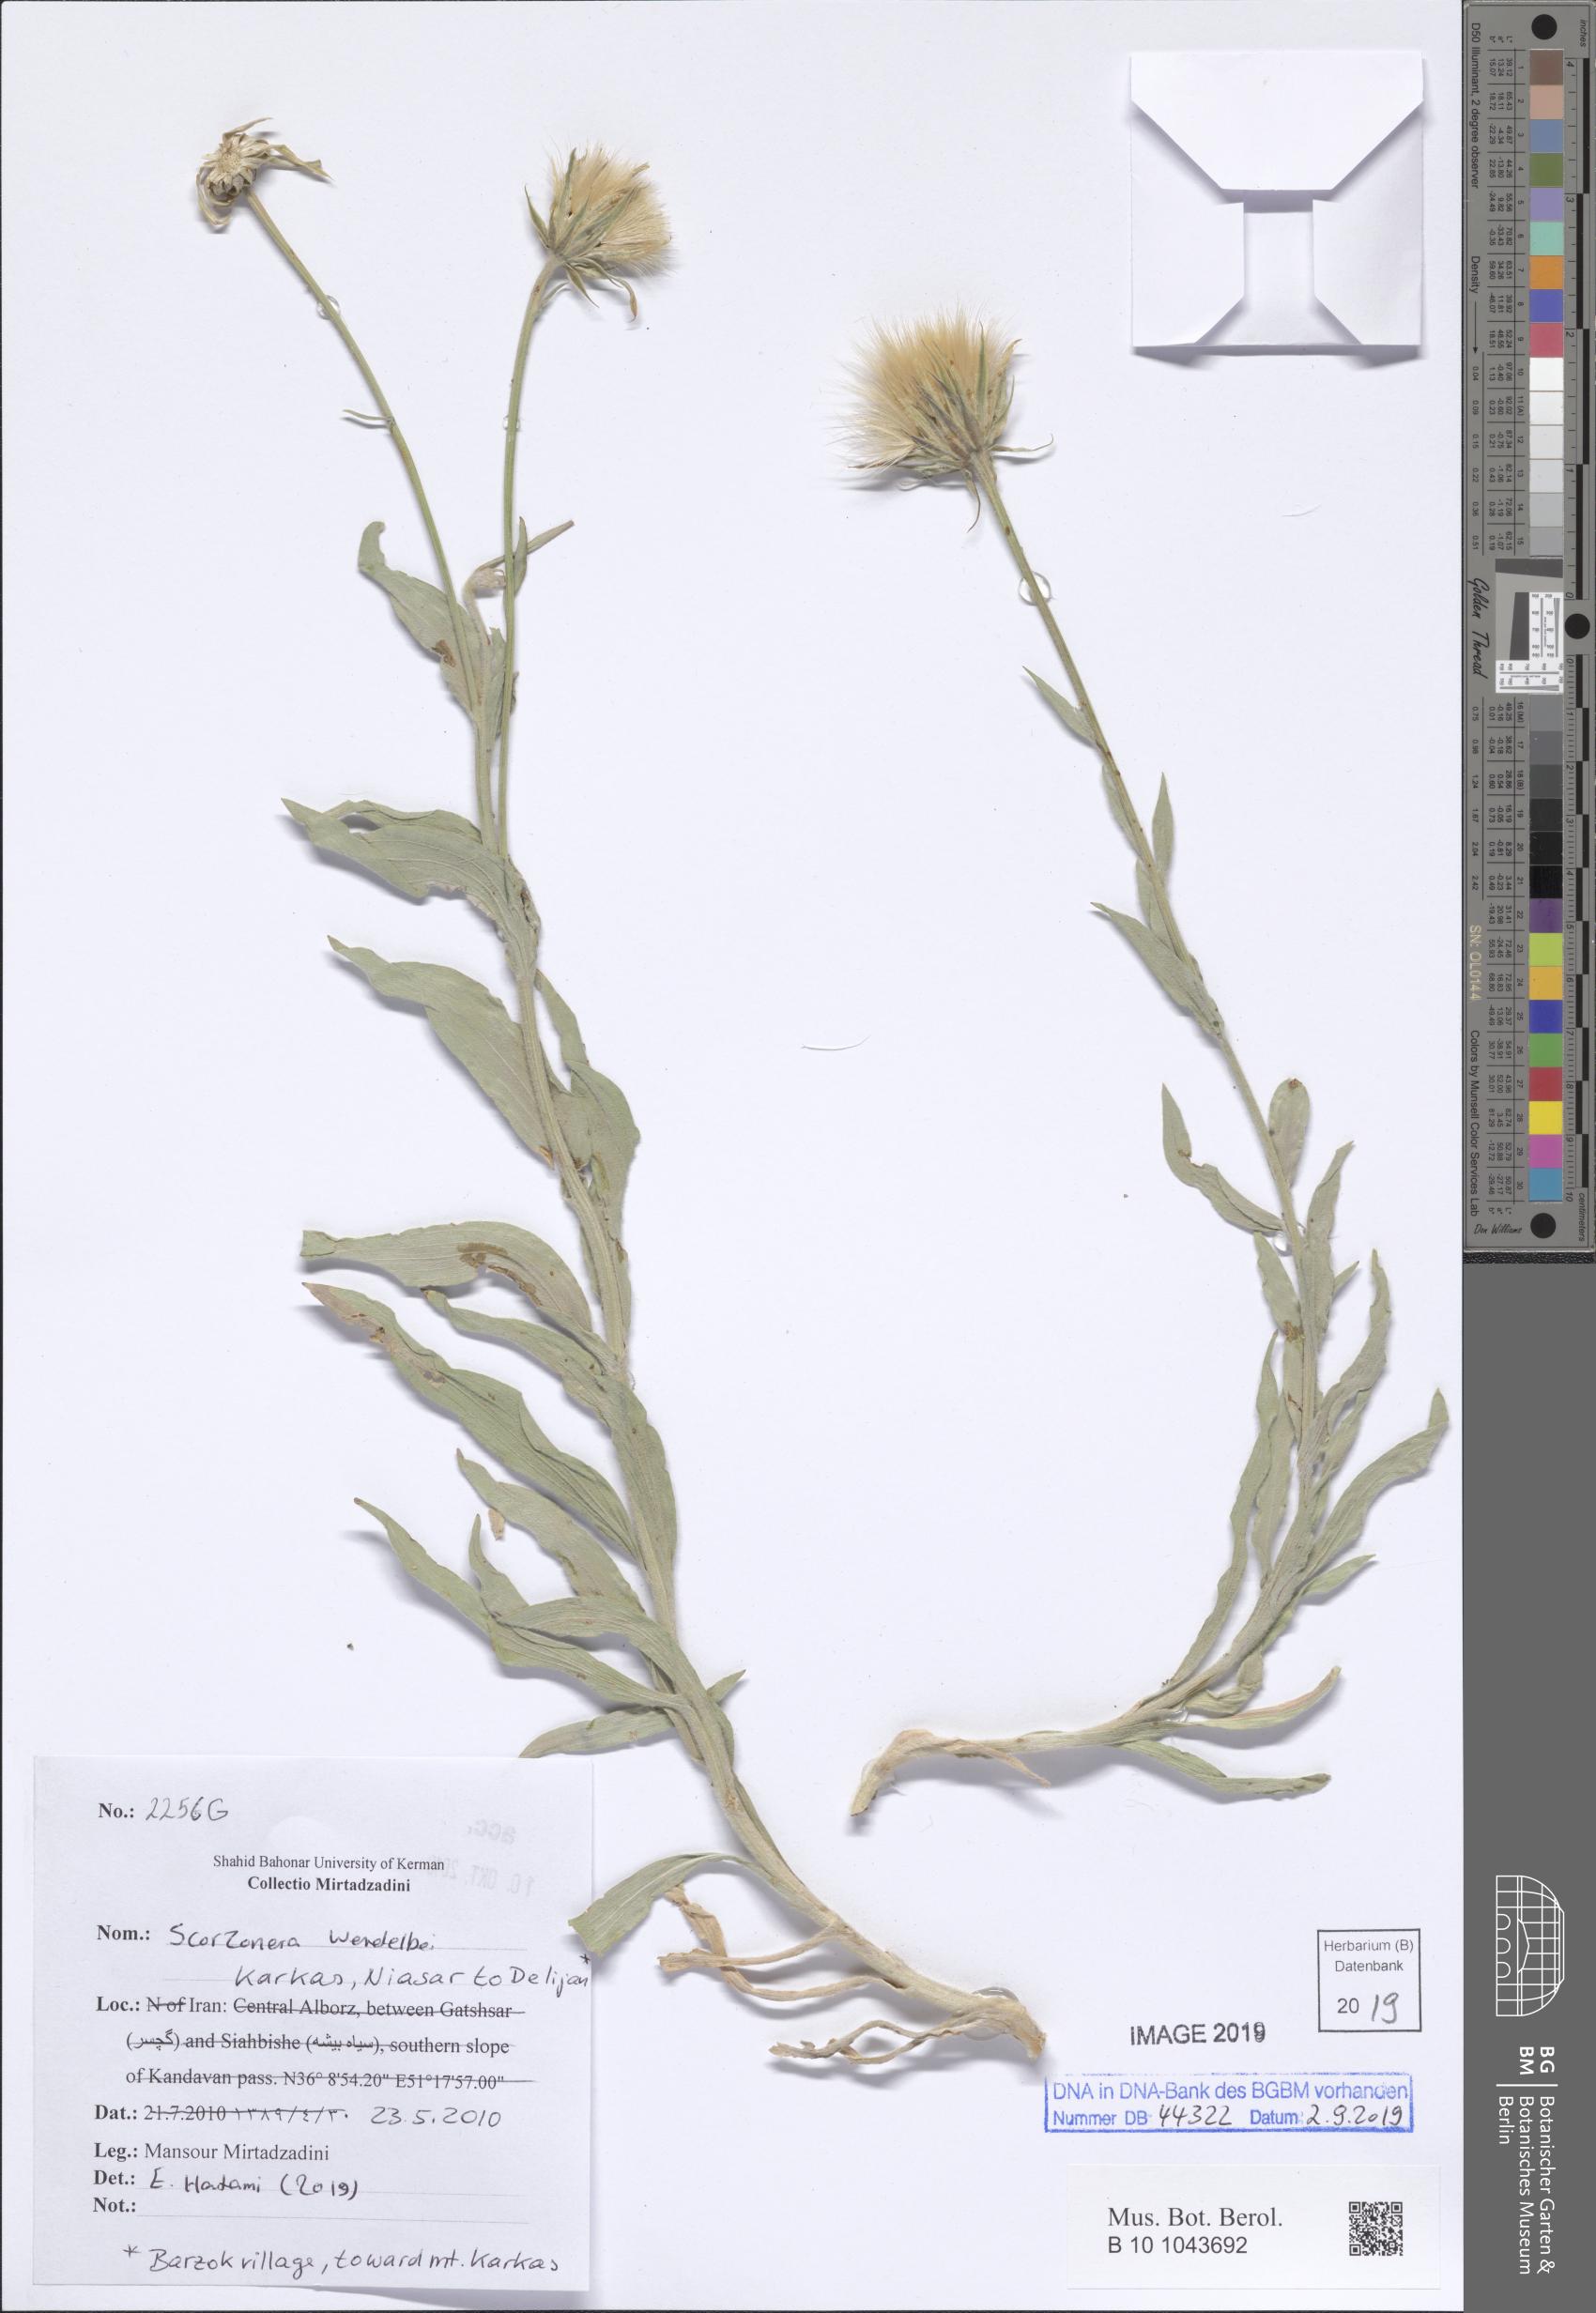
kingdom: Plantae
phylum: Tracheophyta
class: Magnoliopsida
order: Asterales
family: Asteraceae
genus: Scorzonera
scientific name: Scorzonera wendelboi
